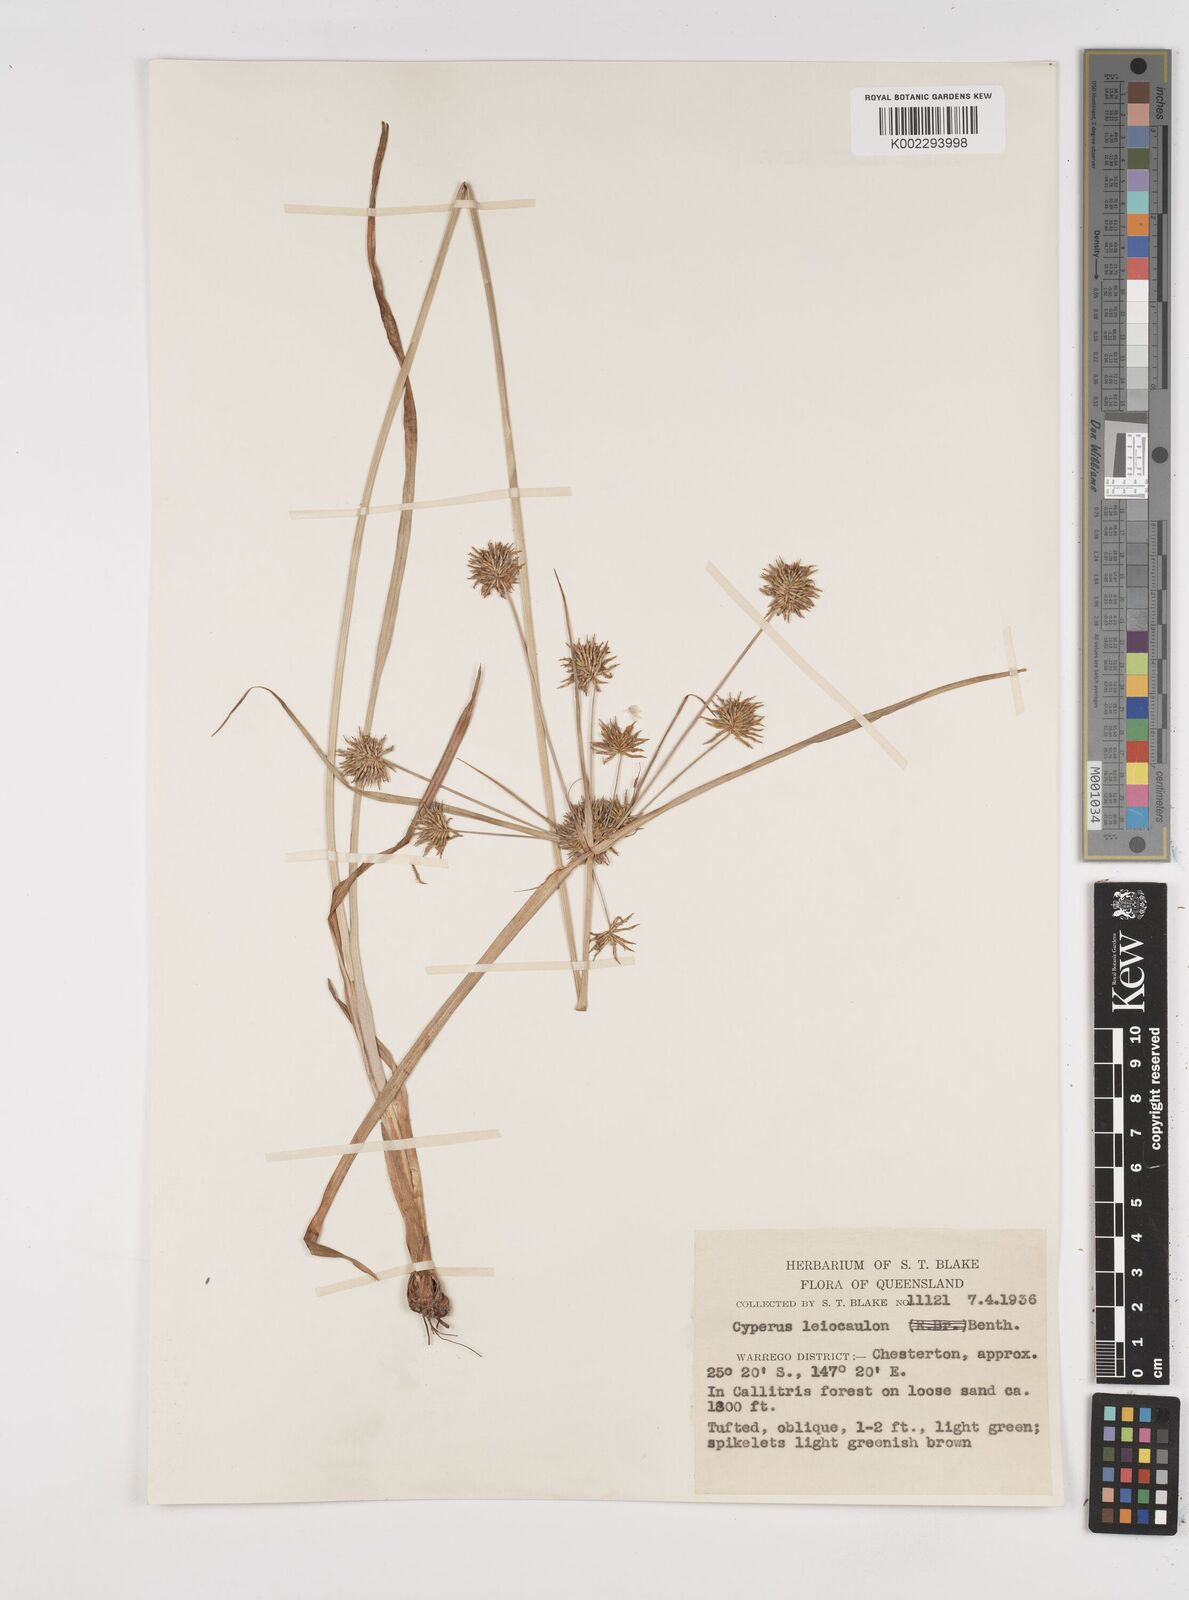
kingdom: Plantae
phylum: Tracheophyta
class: Liliopsida
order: Poales
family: Cyperaceae
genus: Cyperus
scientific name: Cyperus leiocaulon
